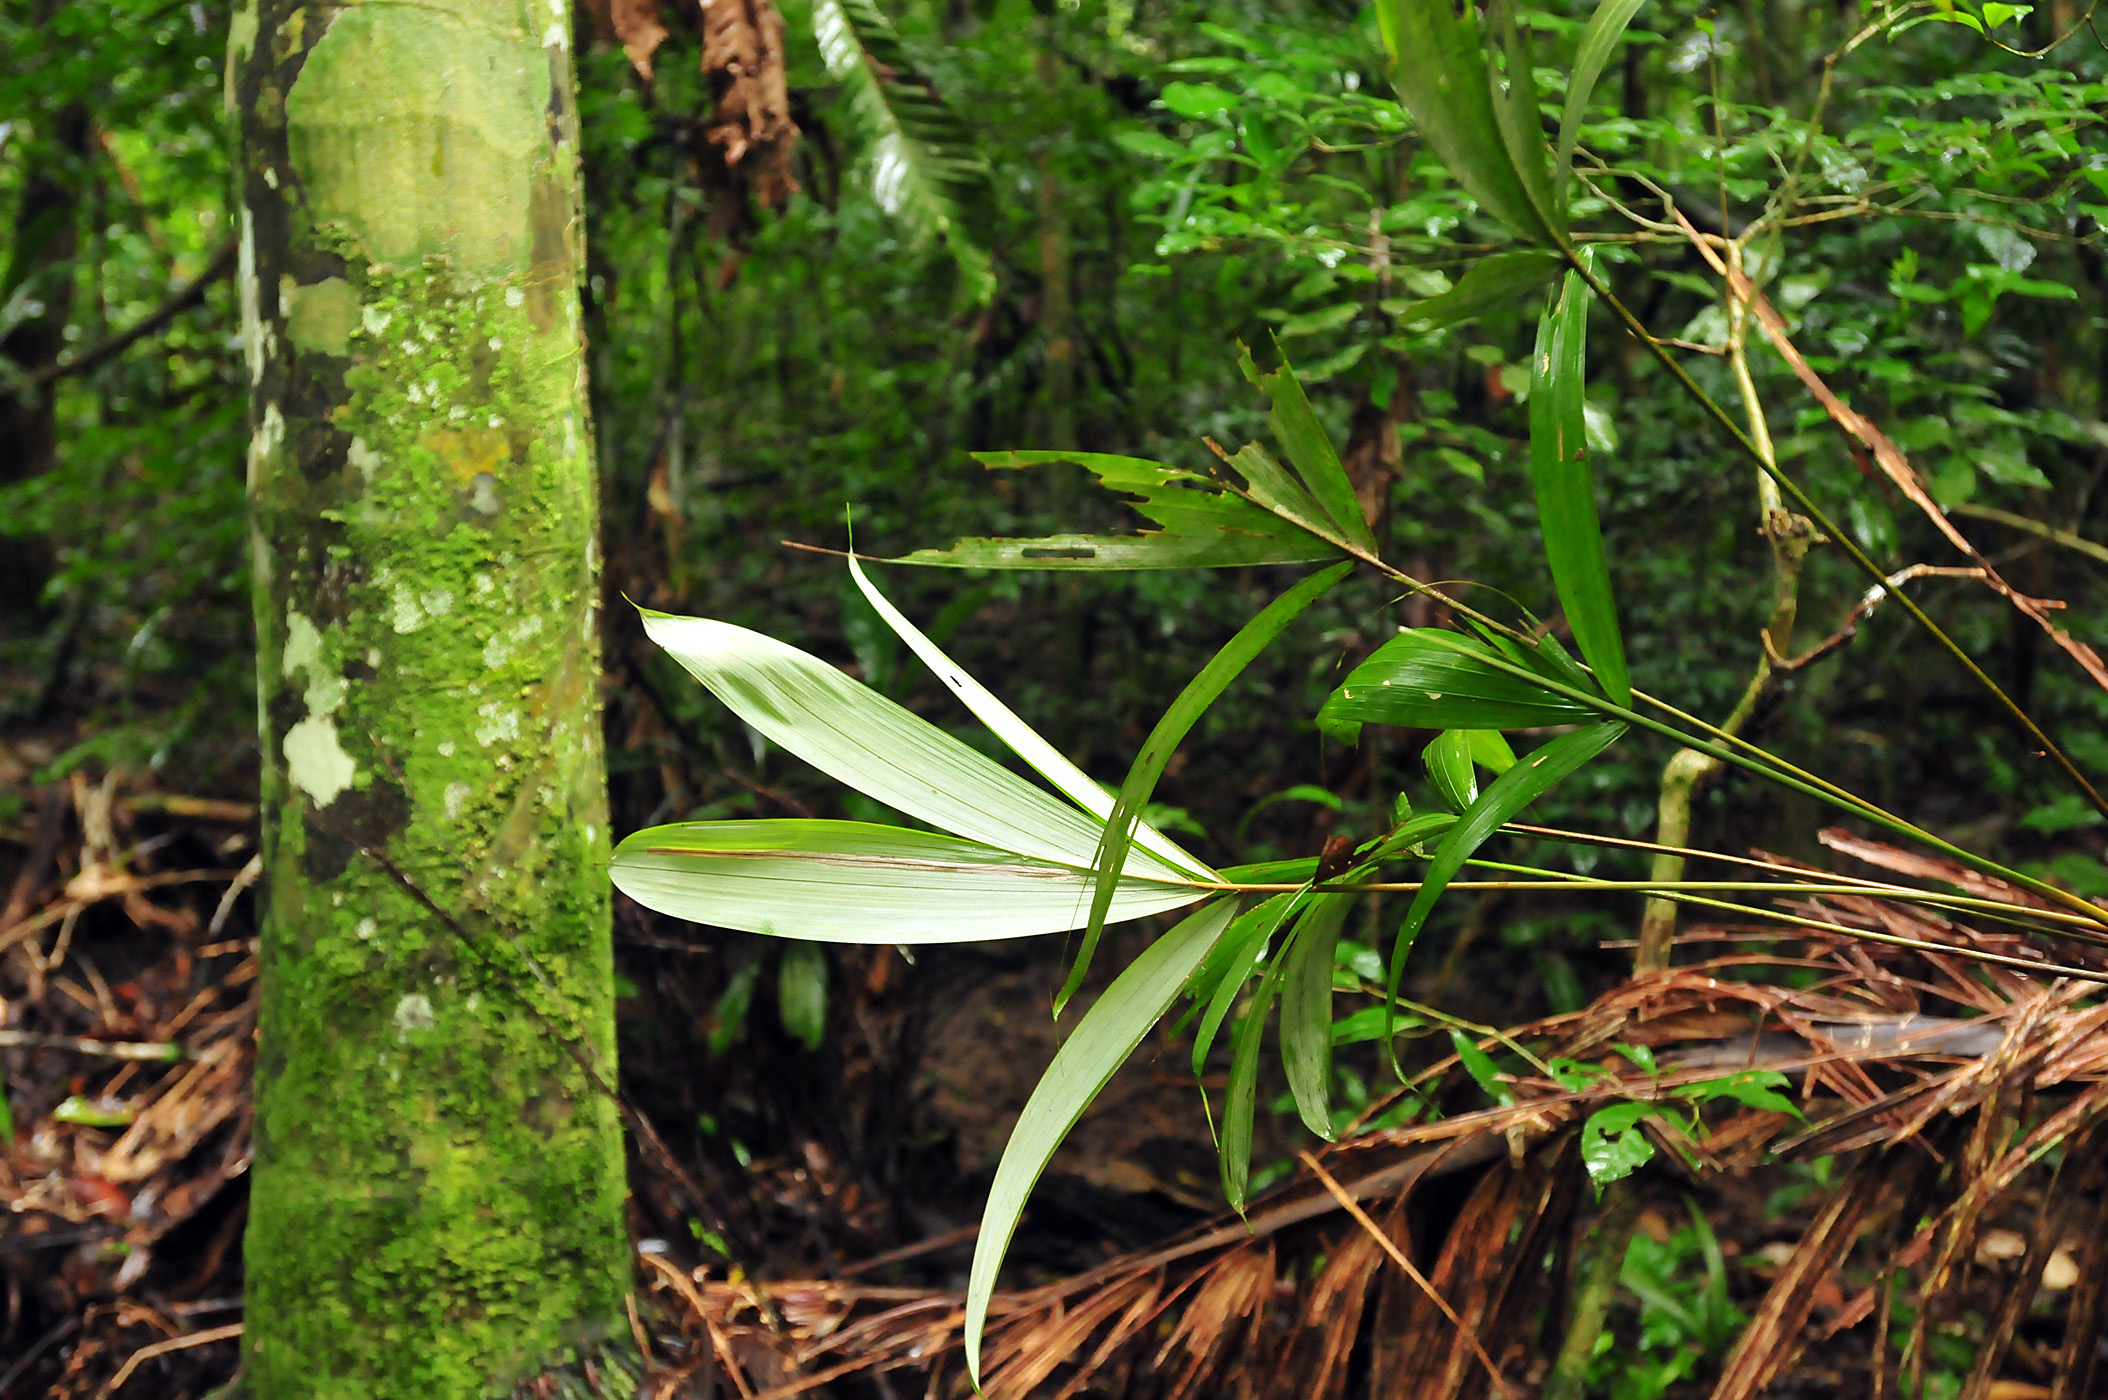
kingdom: Plantae
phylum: Tracheophyta
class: Liliopsida
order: Arecales
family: Arecaceae
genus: Oenocarpus
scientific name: Oenocarpus bataua
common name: Bataua palm
